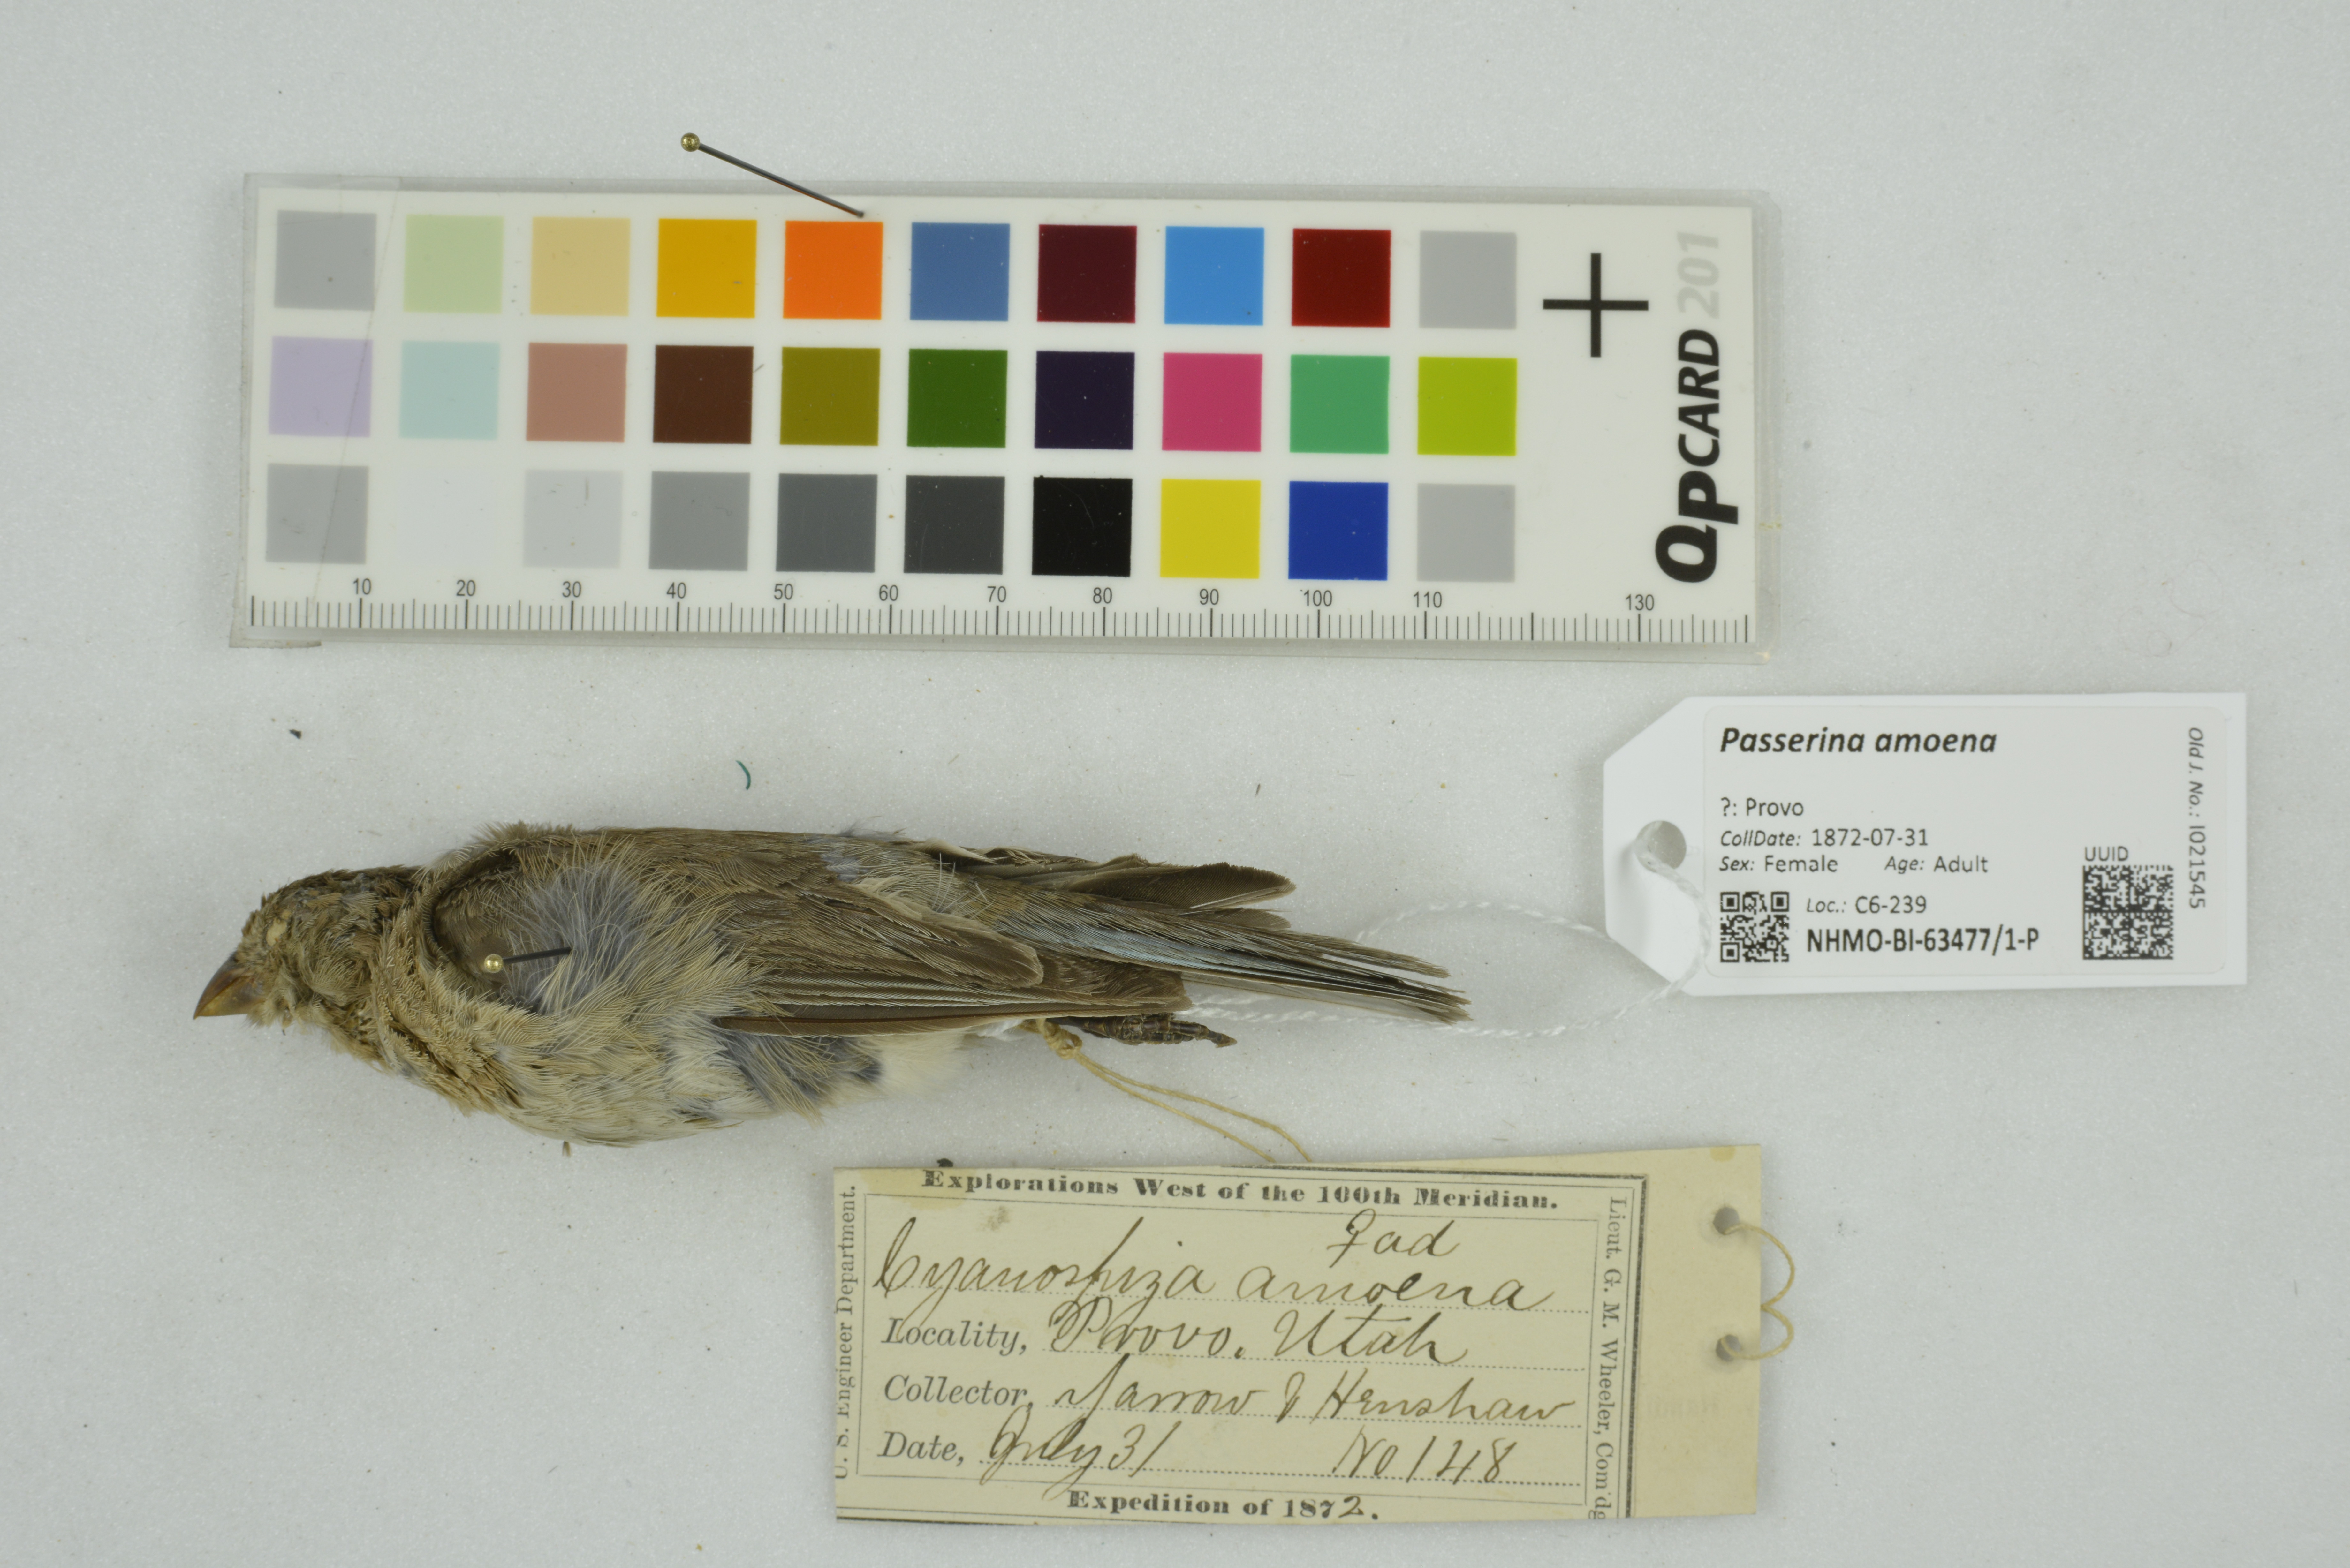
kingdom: Animalia
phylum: Chordata
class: Aves
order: Passeriformes
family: Cardinalidae
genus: Passerina
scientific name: Passerina amoena
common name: Lazuli bunting
